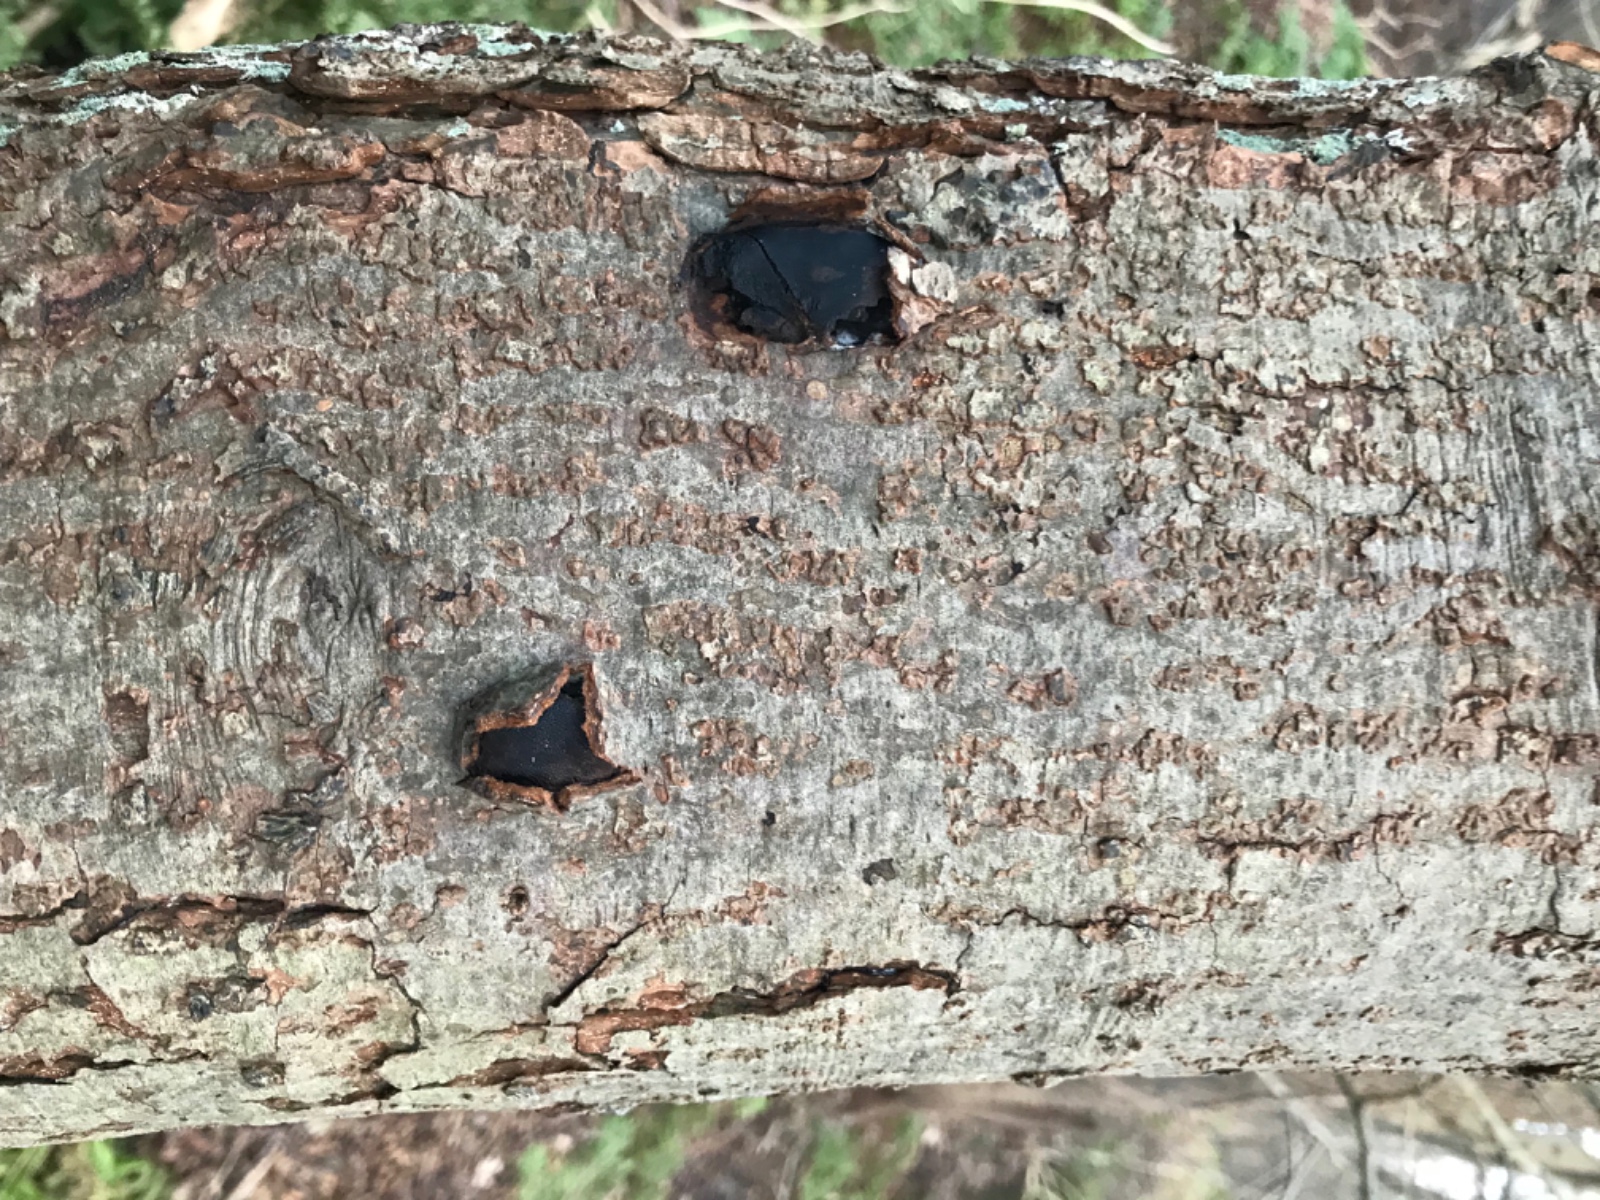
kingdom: Fungi
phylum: Ascomycota
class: Sordariomycetes
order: Boliniales
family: Boliniaceae
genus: Camarops
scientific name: Camarops polysperma
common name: elle-kulsnegl
